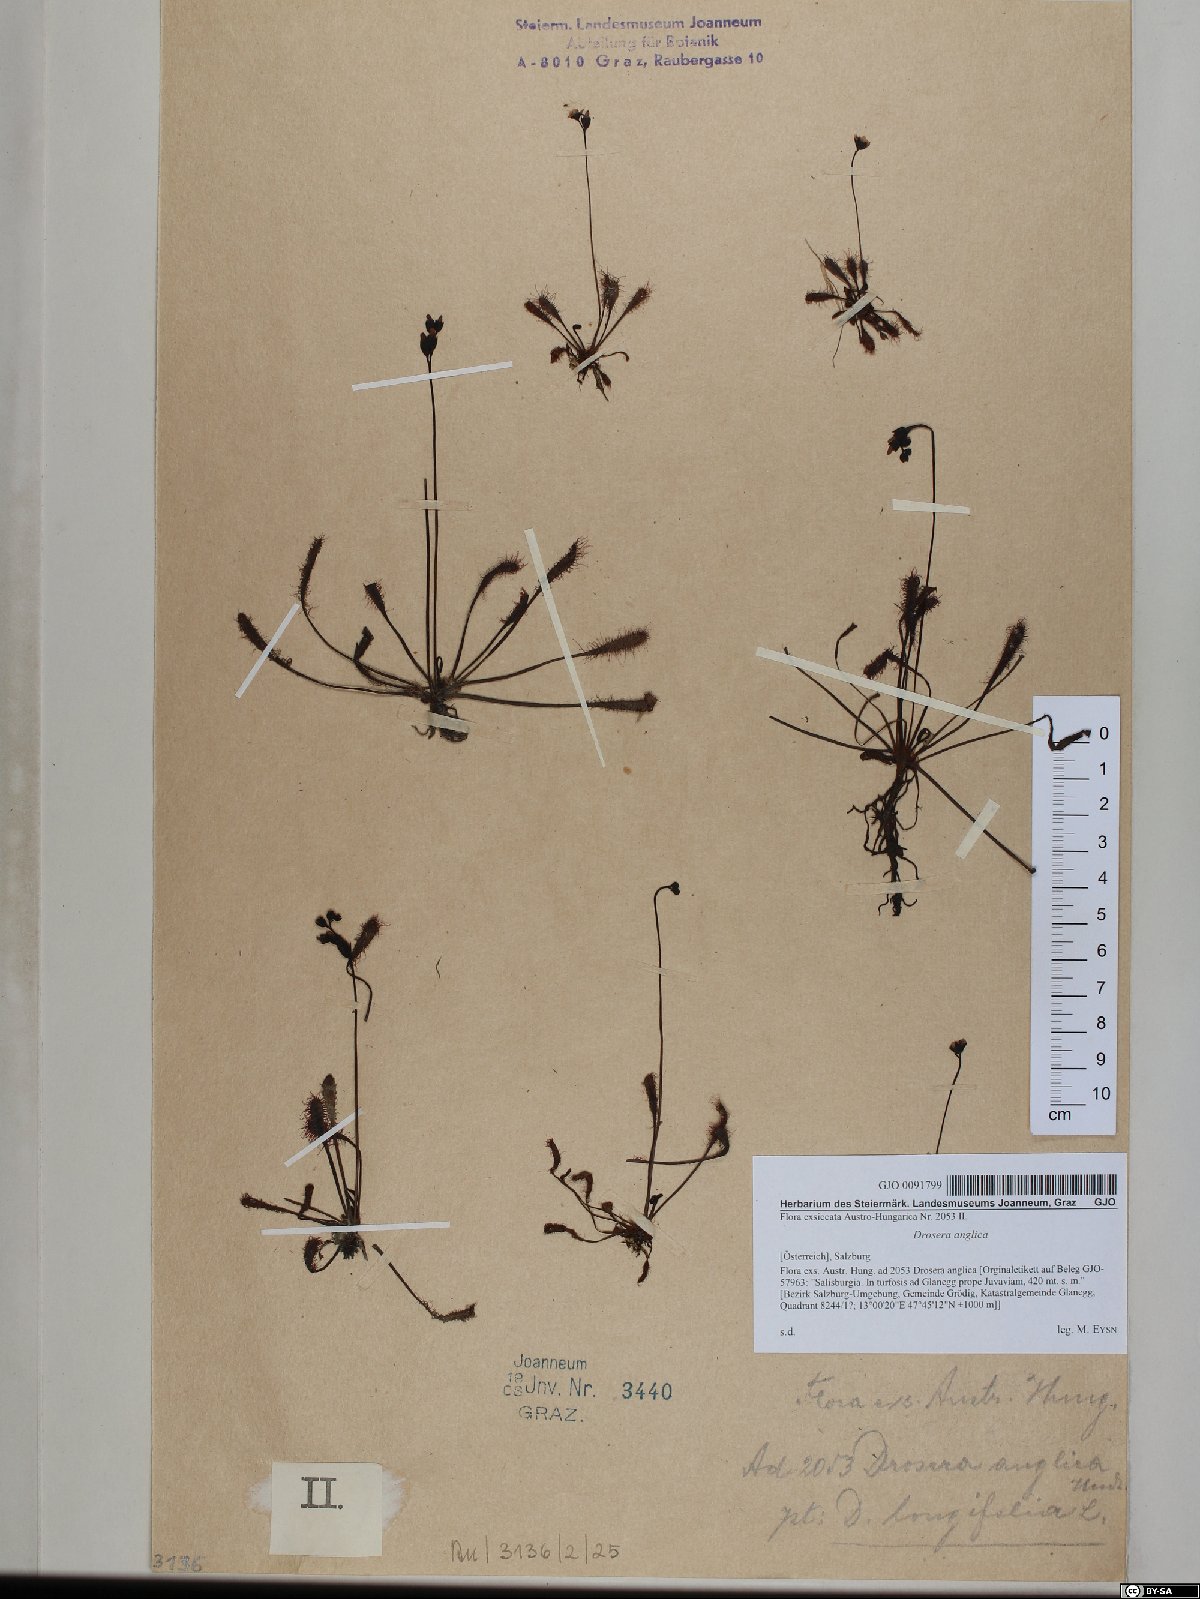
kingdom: Plantae
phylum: Tracheophyta
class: Magnoliopsida
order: Caryophyllales
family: Droseraceae
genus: Drosera
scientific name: Drosera anglica
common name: Great sundew
